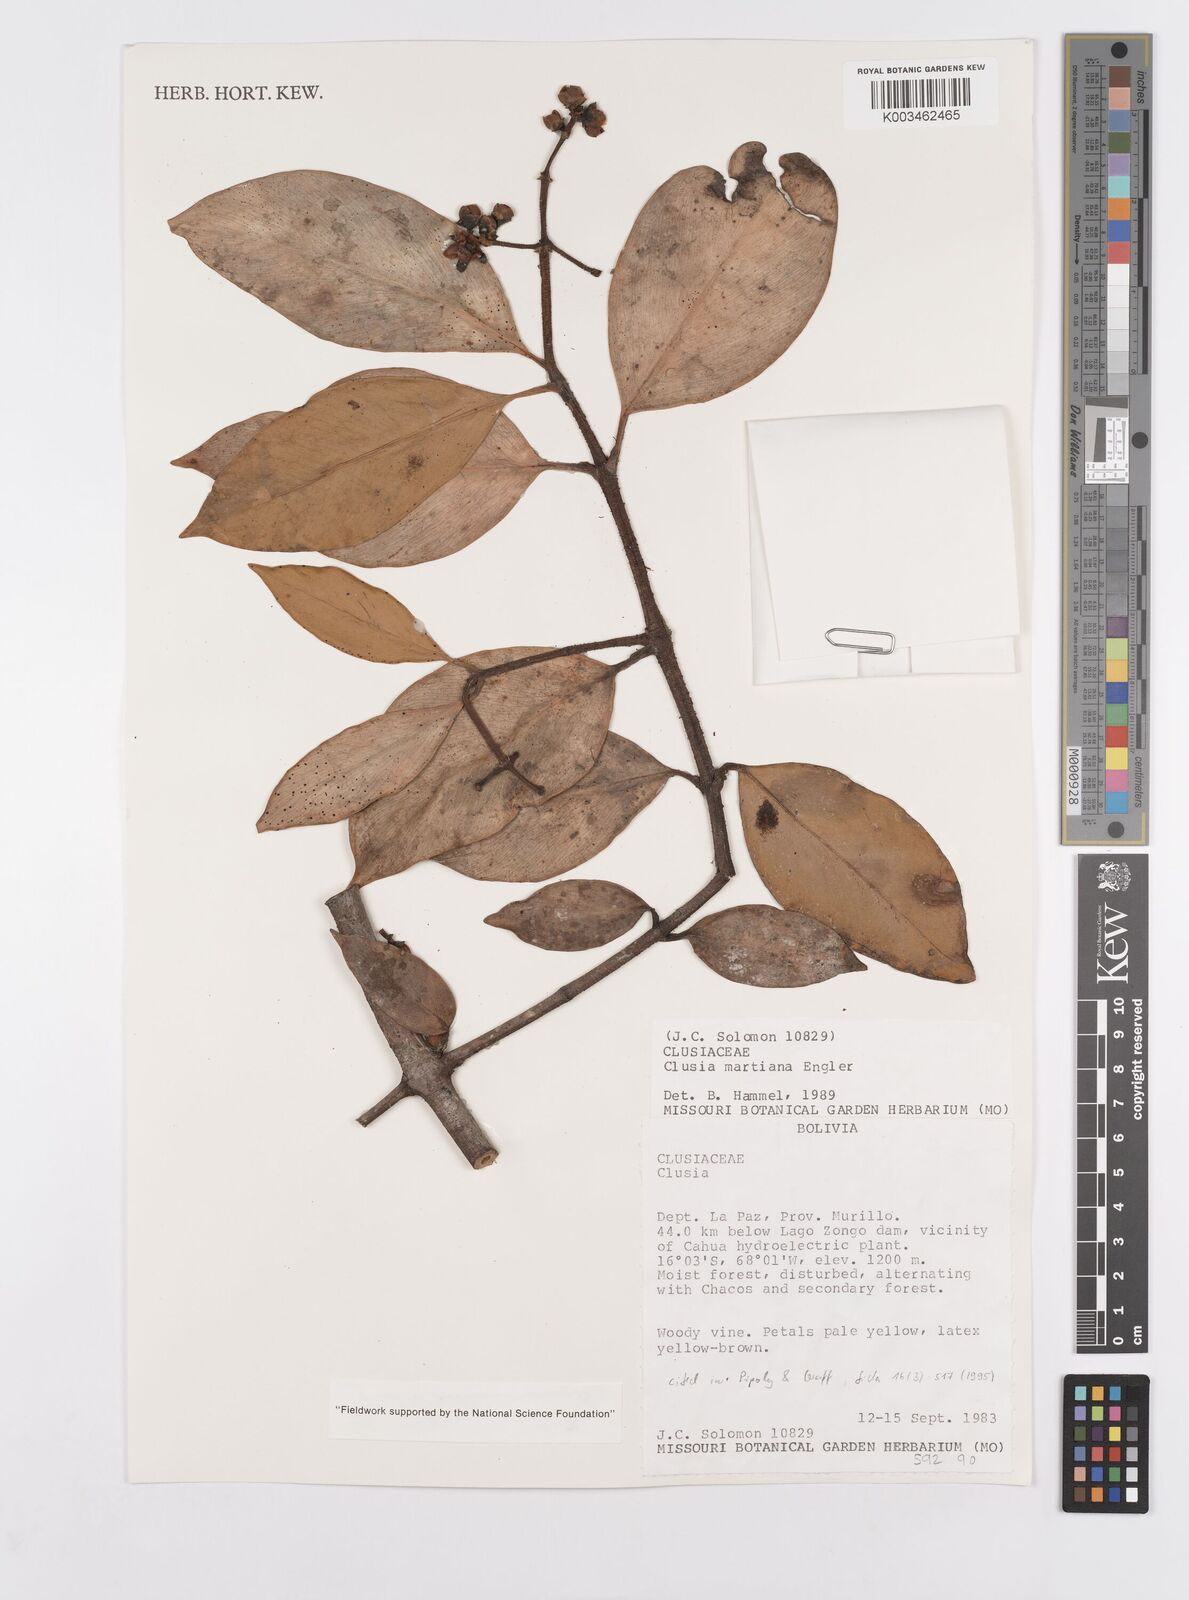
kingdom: Plantae
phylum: Tracheophyta
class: Magnoliopsida
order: Malpighiales
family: Clusiaceae
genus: Clusia
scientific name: Clusia martiana
